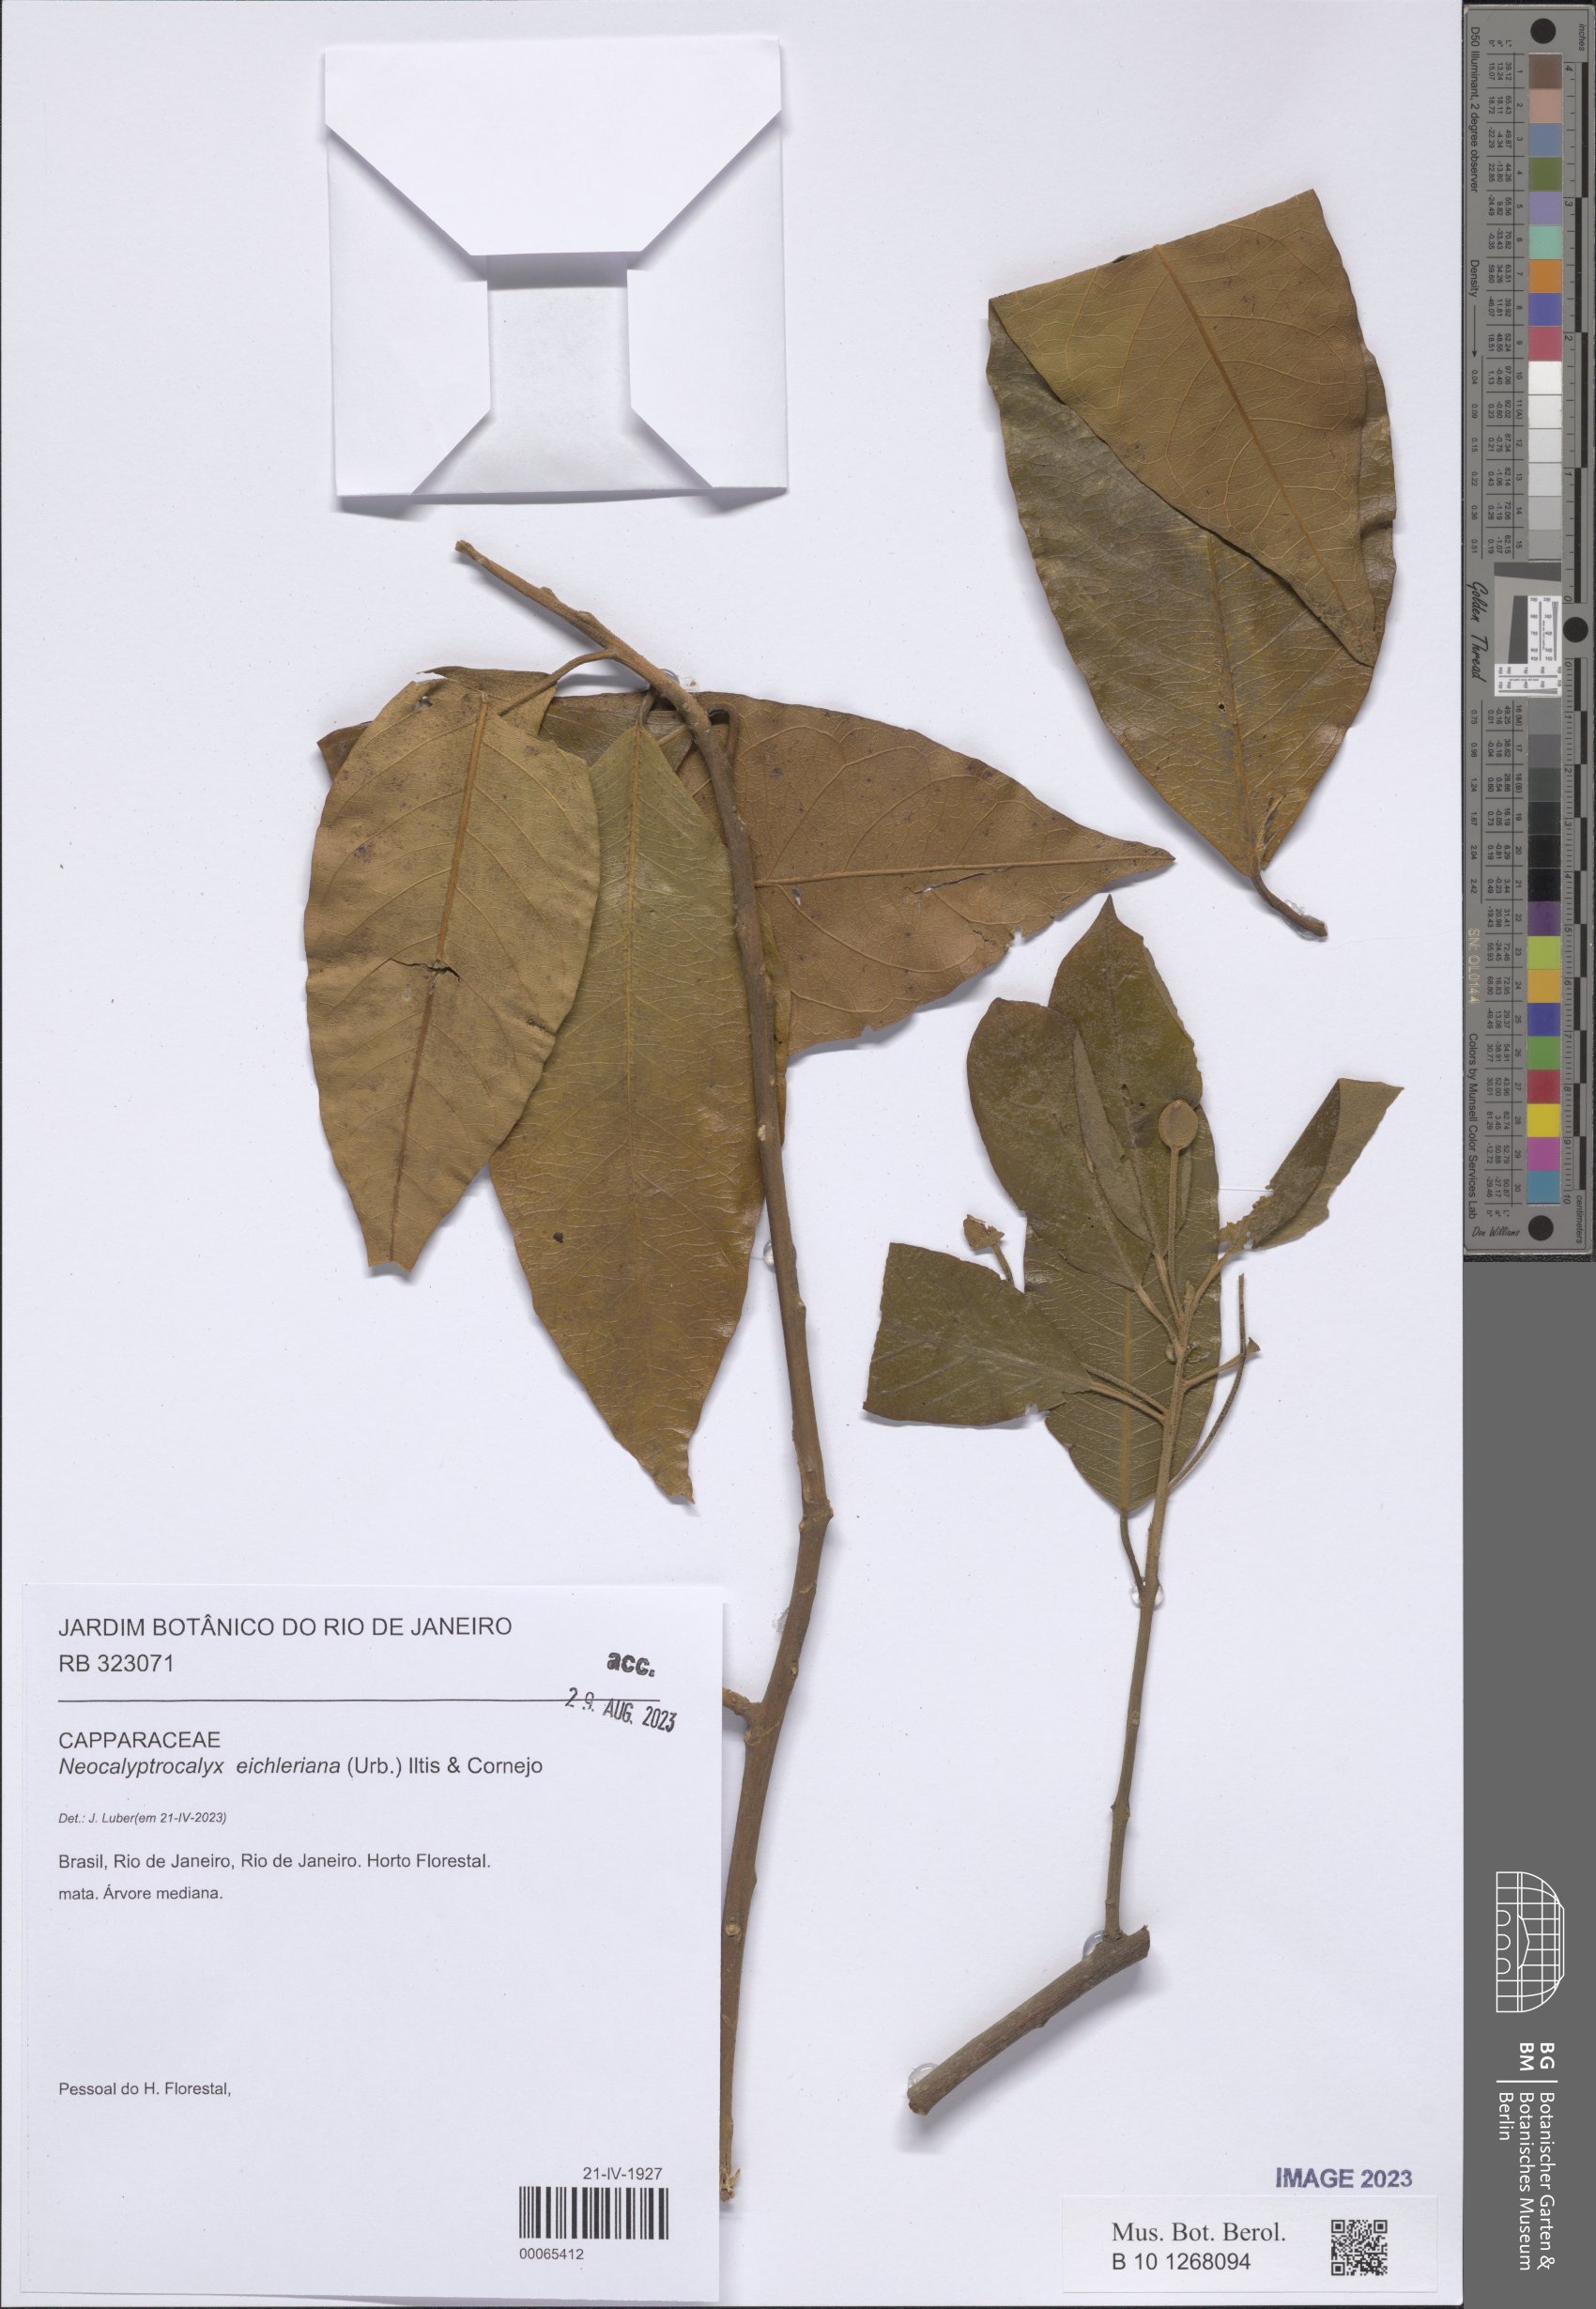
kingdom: Plantae
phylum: Tracheophyta
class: Magnoliopsida
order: Brassicales
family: Capparaceae
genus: Neocalyptrocalyx
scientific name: Neocalyptrocalyx eichleriana
